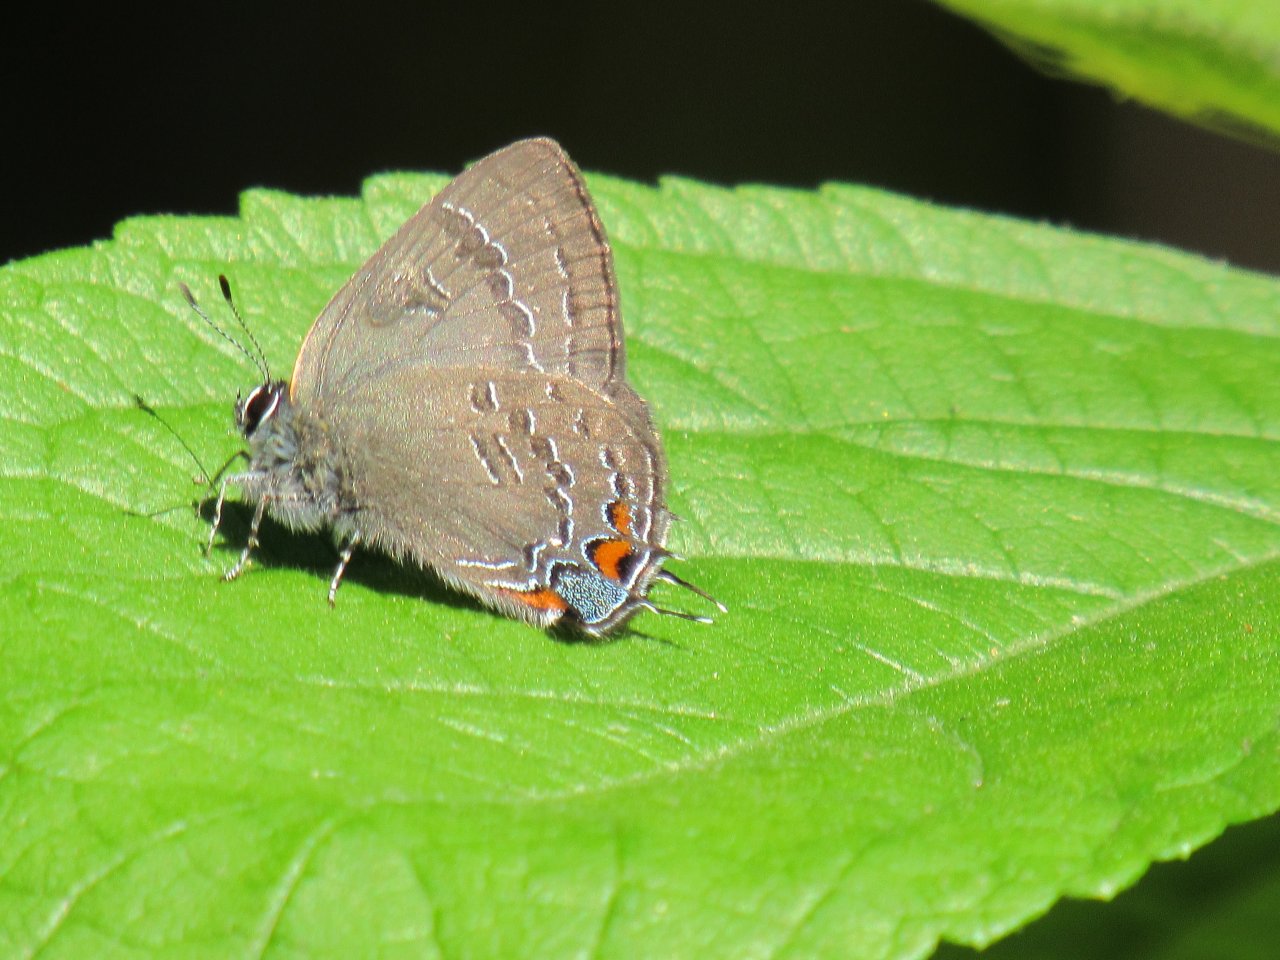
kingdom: Animalia
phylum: Arthropoda
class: Insecta
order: Lepidoptera
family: Lycaenidae
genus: Satyrium
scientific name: Satyrium calanus
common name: Banded Hairstreak
